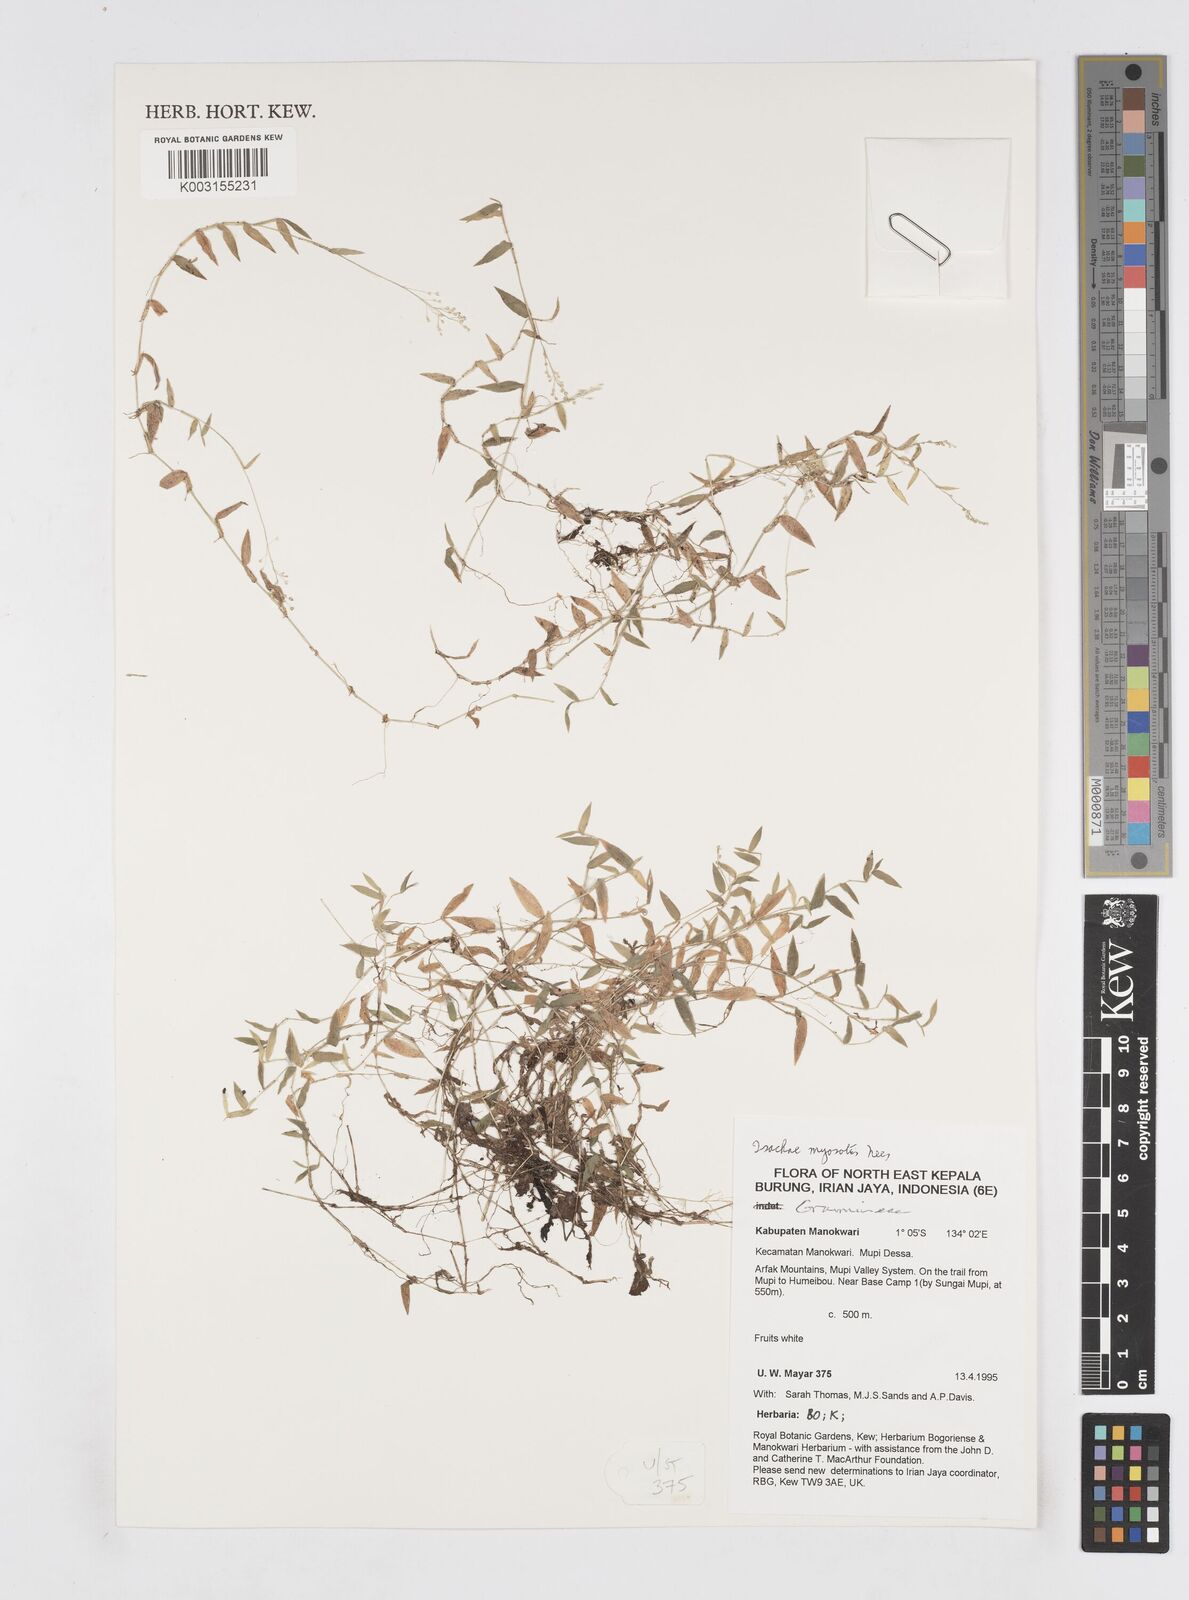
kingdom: Plantae
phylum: Tracheophyta
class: Liliopsida
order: Poales
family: Poaceae
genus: Isachne
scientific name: Isachne myosotis
